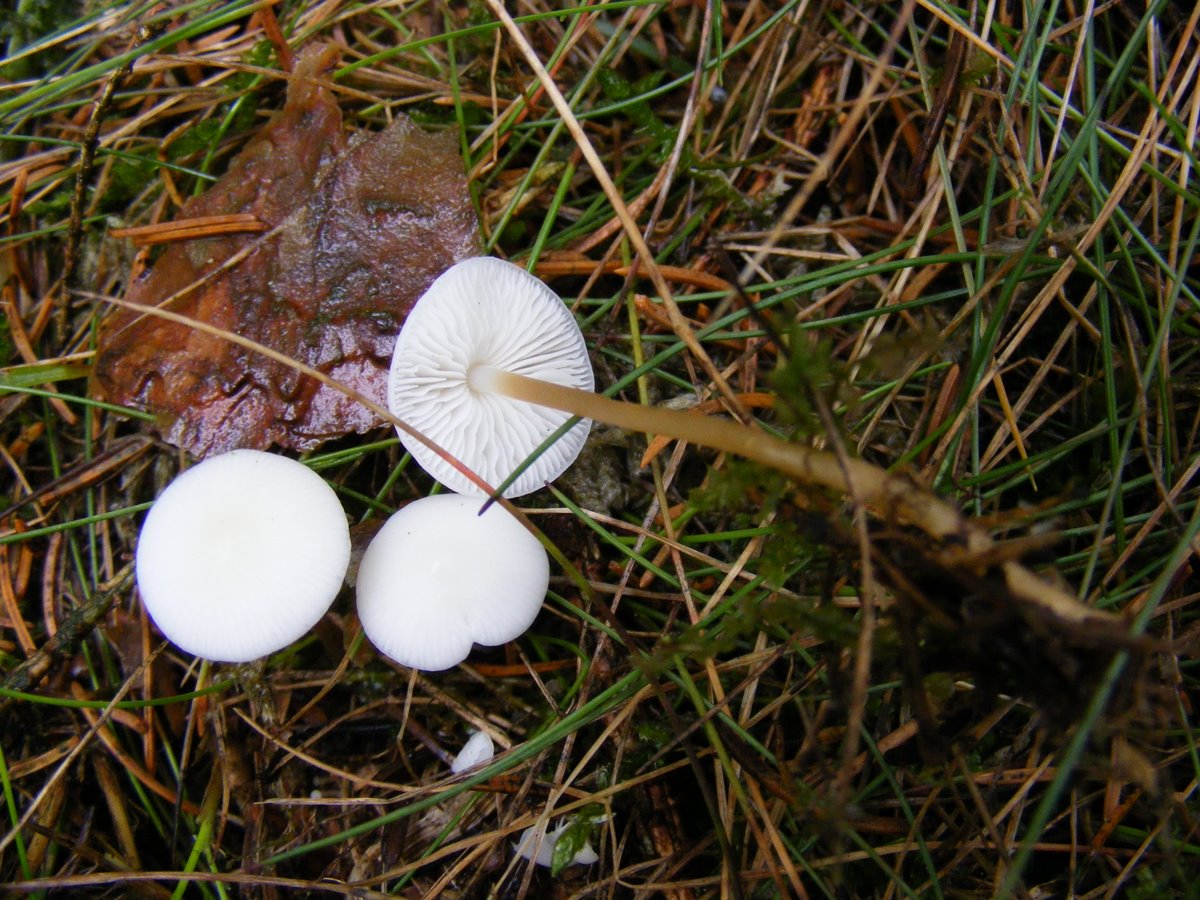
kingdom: Fungi
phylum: Basidiomycota
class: Agaricomycetes
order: Agaricales
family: Physalacriaceae
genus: Strobilurus
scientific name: Strobilurus esculentus
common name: gran-koglehat
